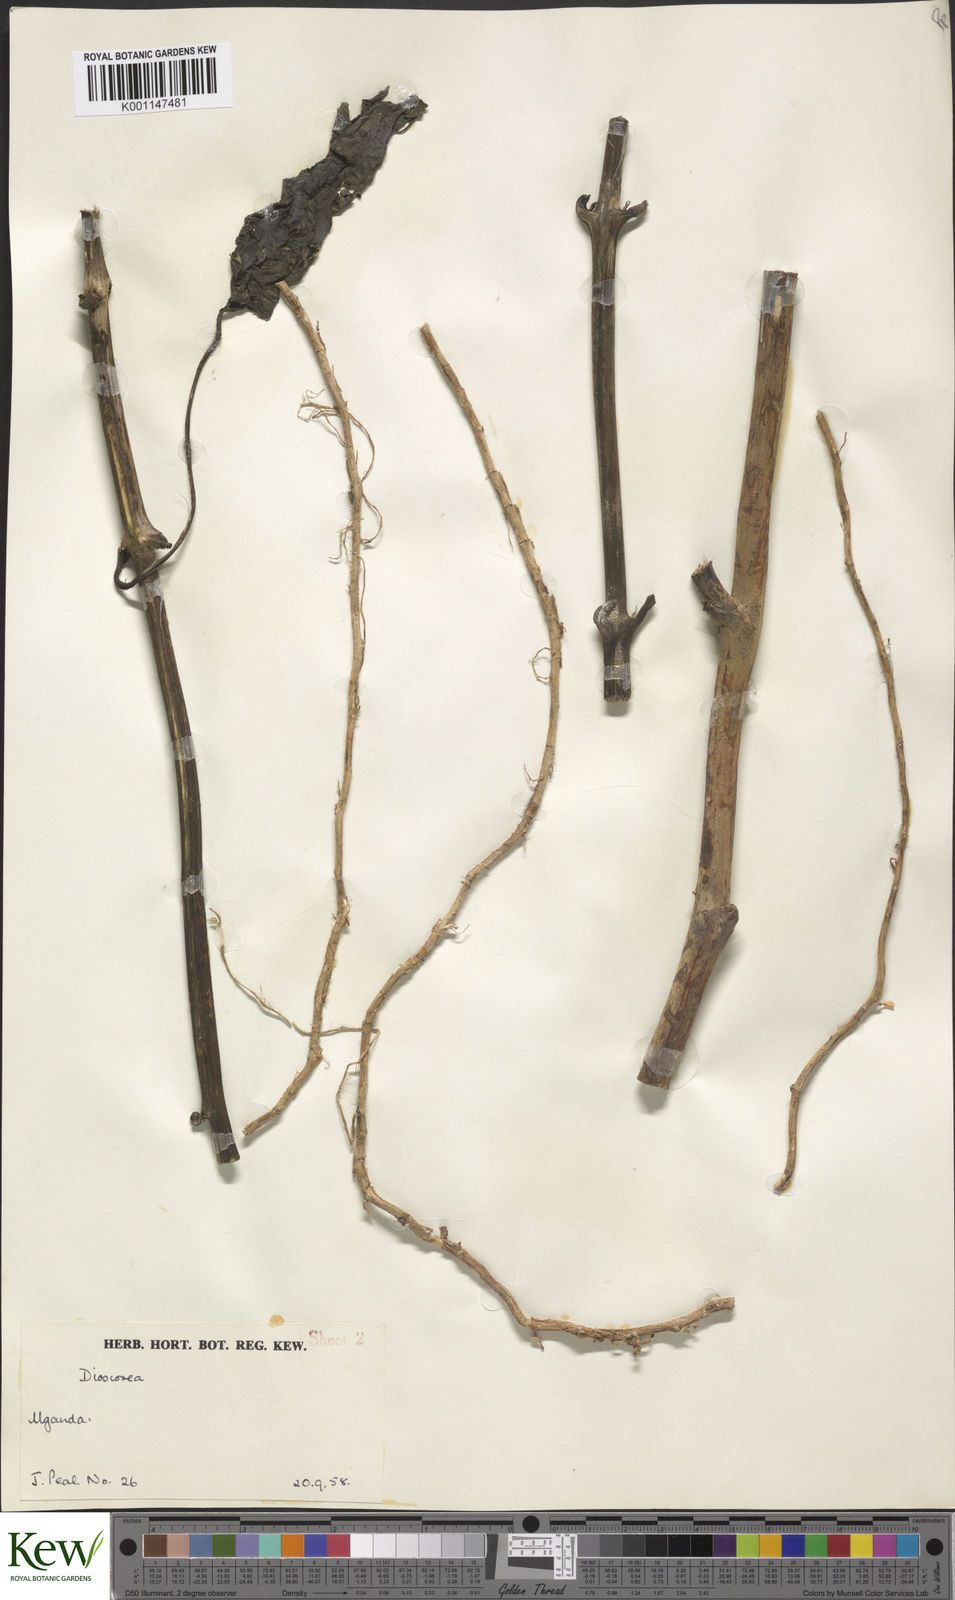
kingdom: Plantae
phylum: Tracheophyta
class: Liliopsida
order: Dioscoreales
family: Dioscoreaceae
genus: Dioscorea
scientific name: Dioscorea
